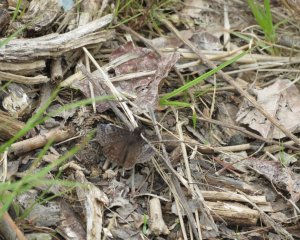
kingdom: Animalia
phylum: Arthropoda
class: Insecta
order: Lepidoptera
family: Hesperiidae
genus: Erynnis
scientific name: Erynnis icelus
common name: Dreamy Duskywing
